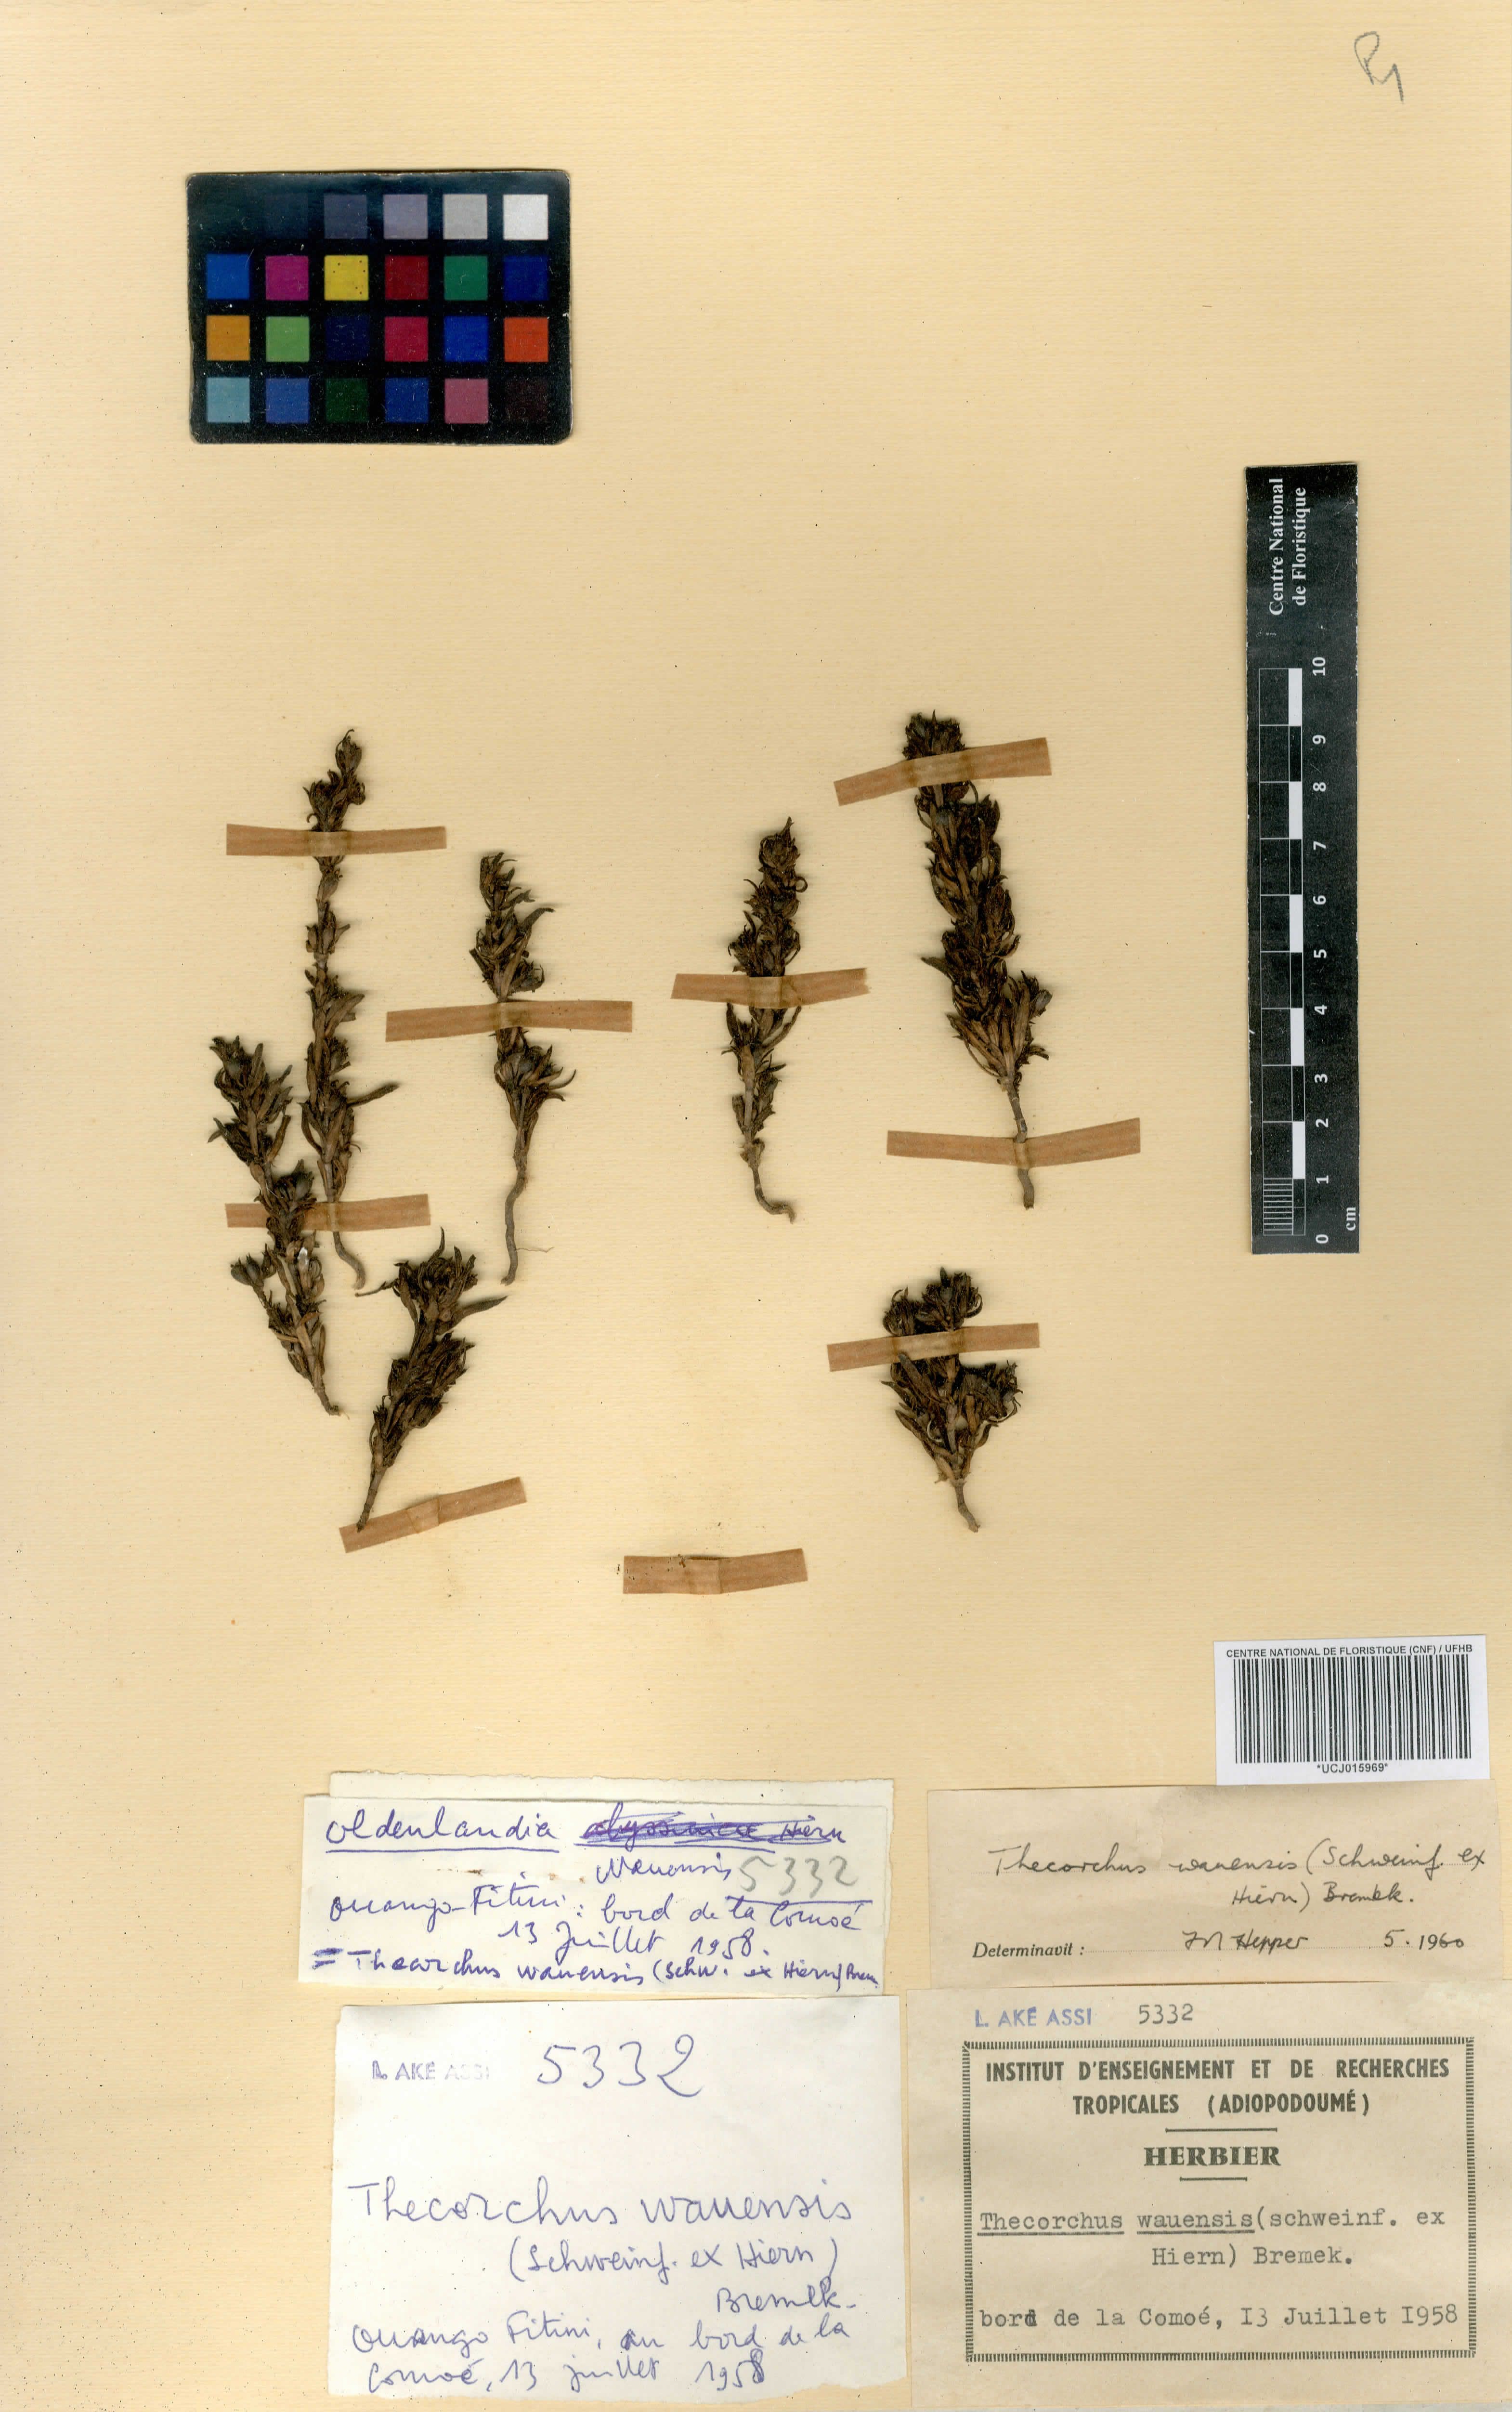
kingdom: Plantae
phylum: Tracheophyta
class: Magnoliopsida
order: Gentianales
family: Rubiaceae
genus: Oldenlandia
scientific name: Oldenlandia wauensis
